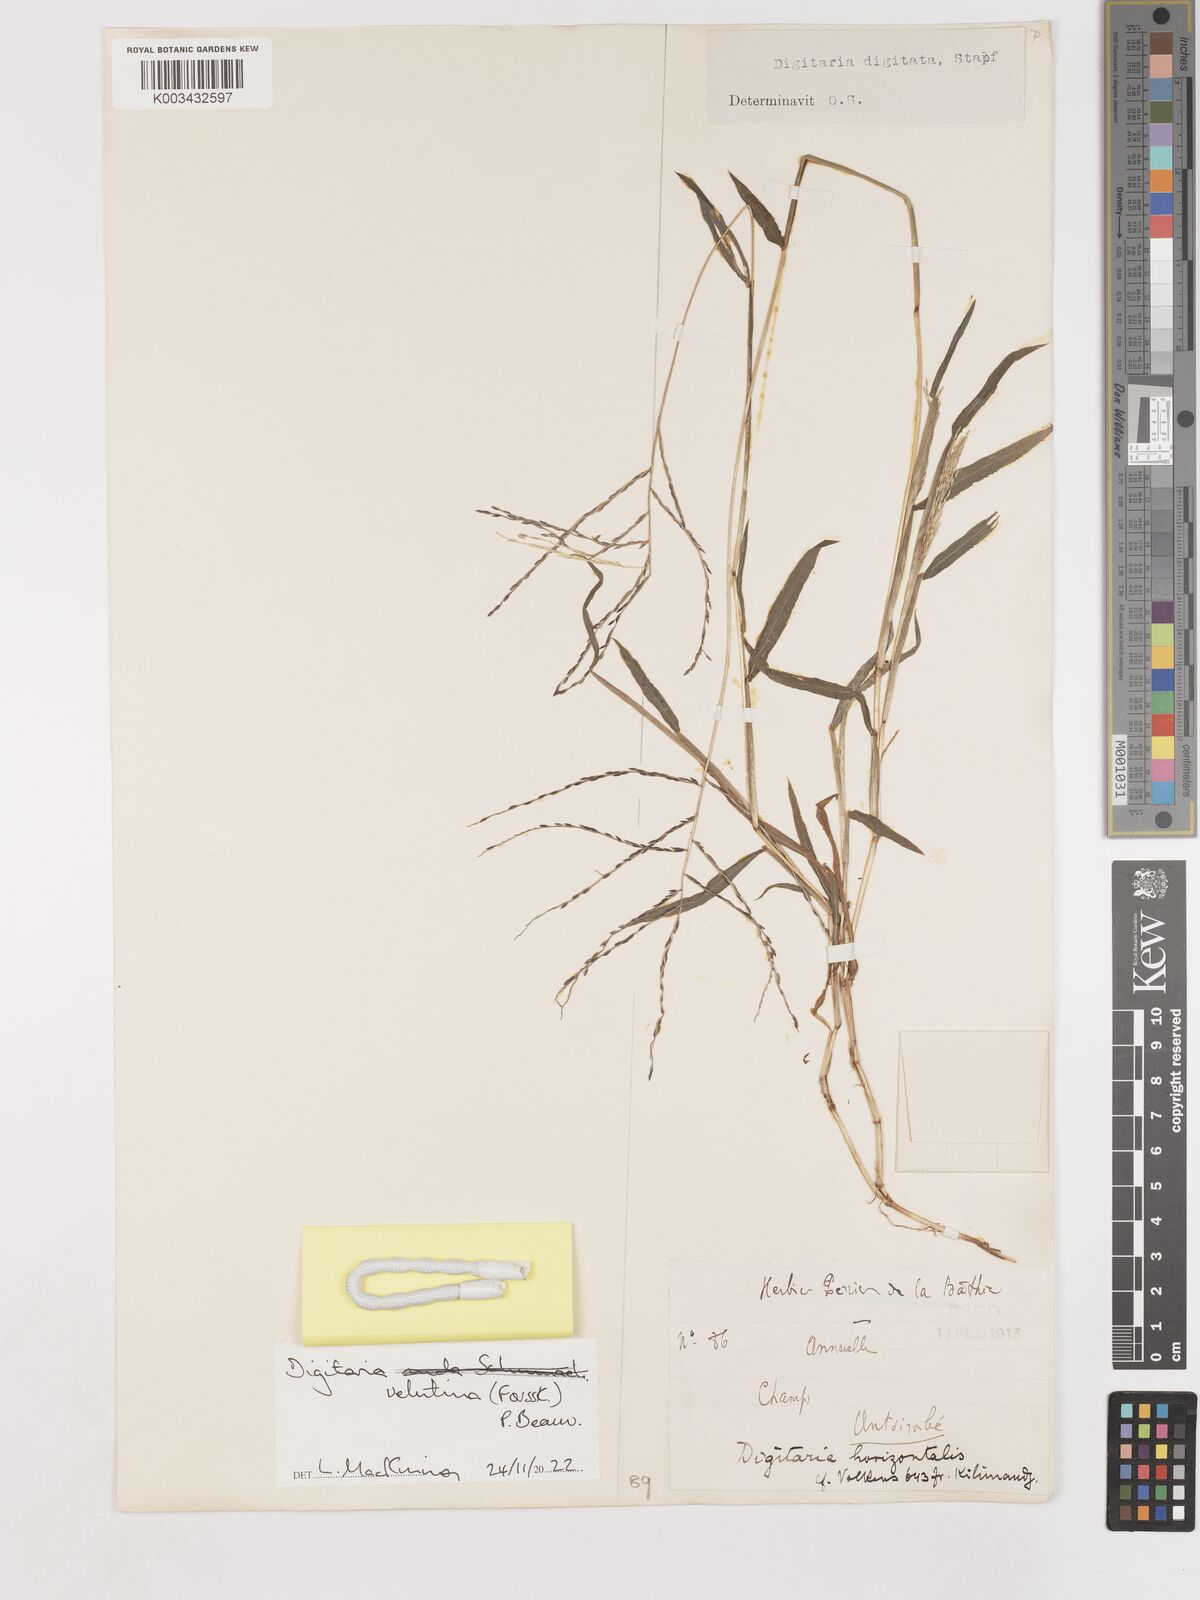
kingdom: Plantae
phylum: Tracheophyta
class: Liliopsida
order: Poales
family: Poaceae
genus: Digitaria
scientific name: Digitaria velutina
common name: Long-plume finger grass
